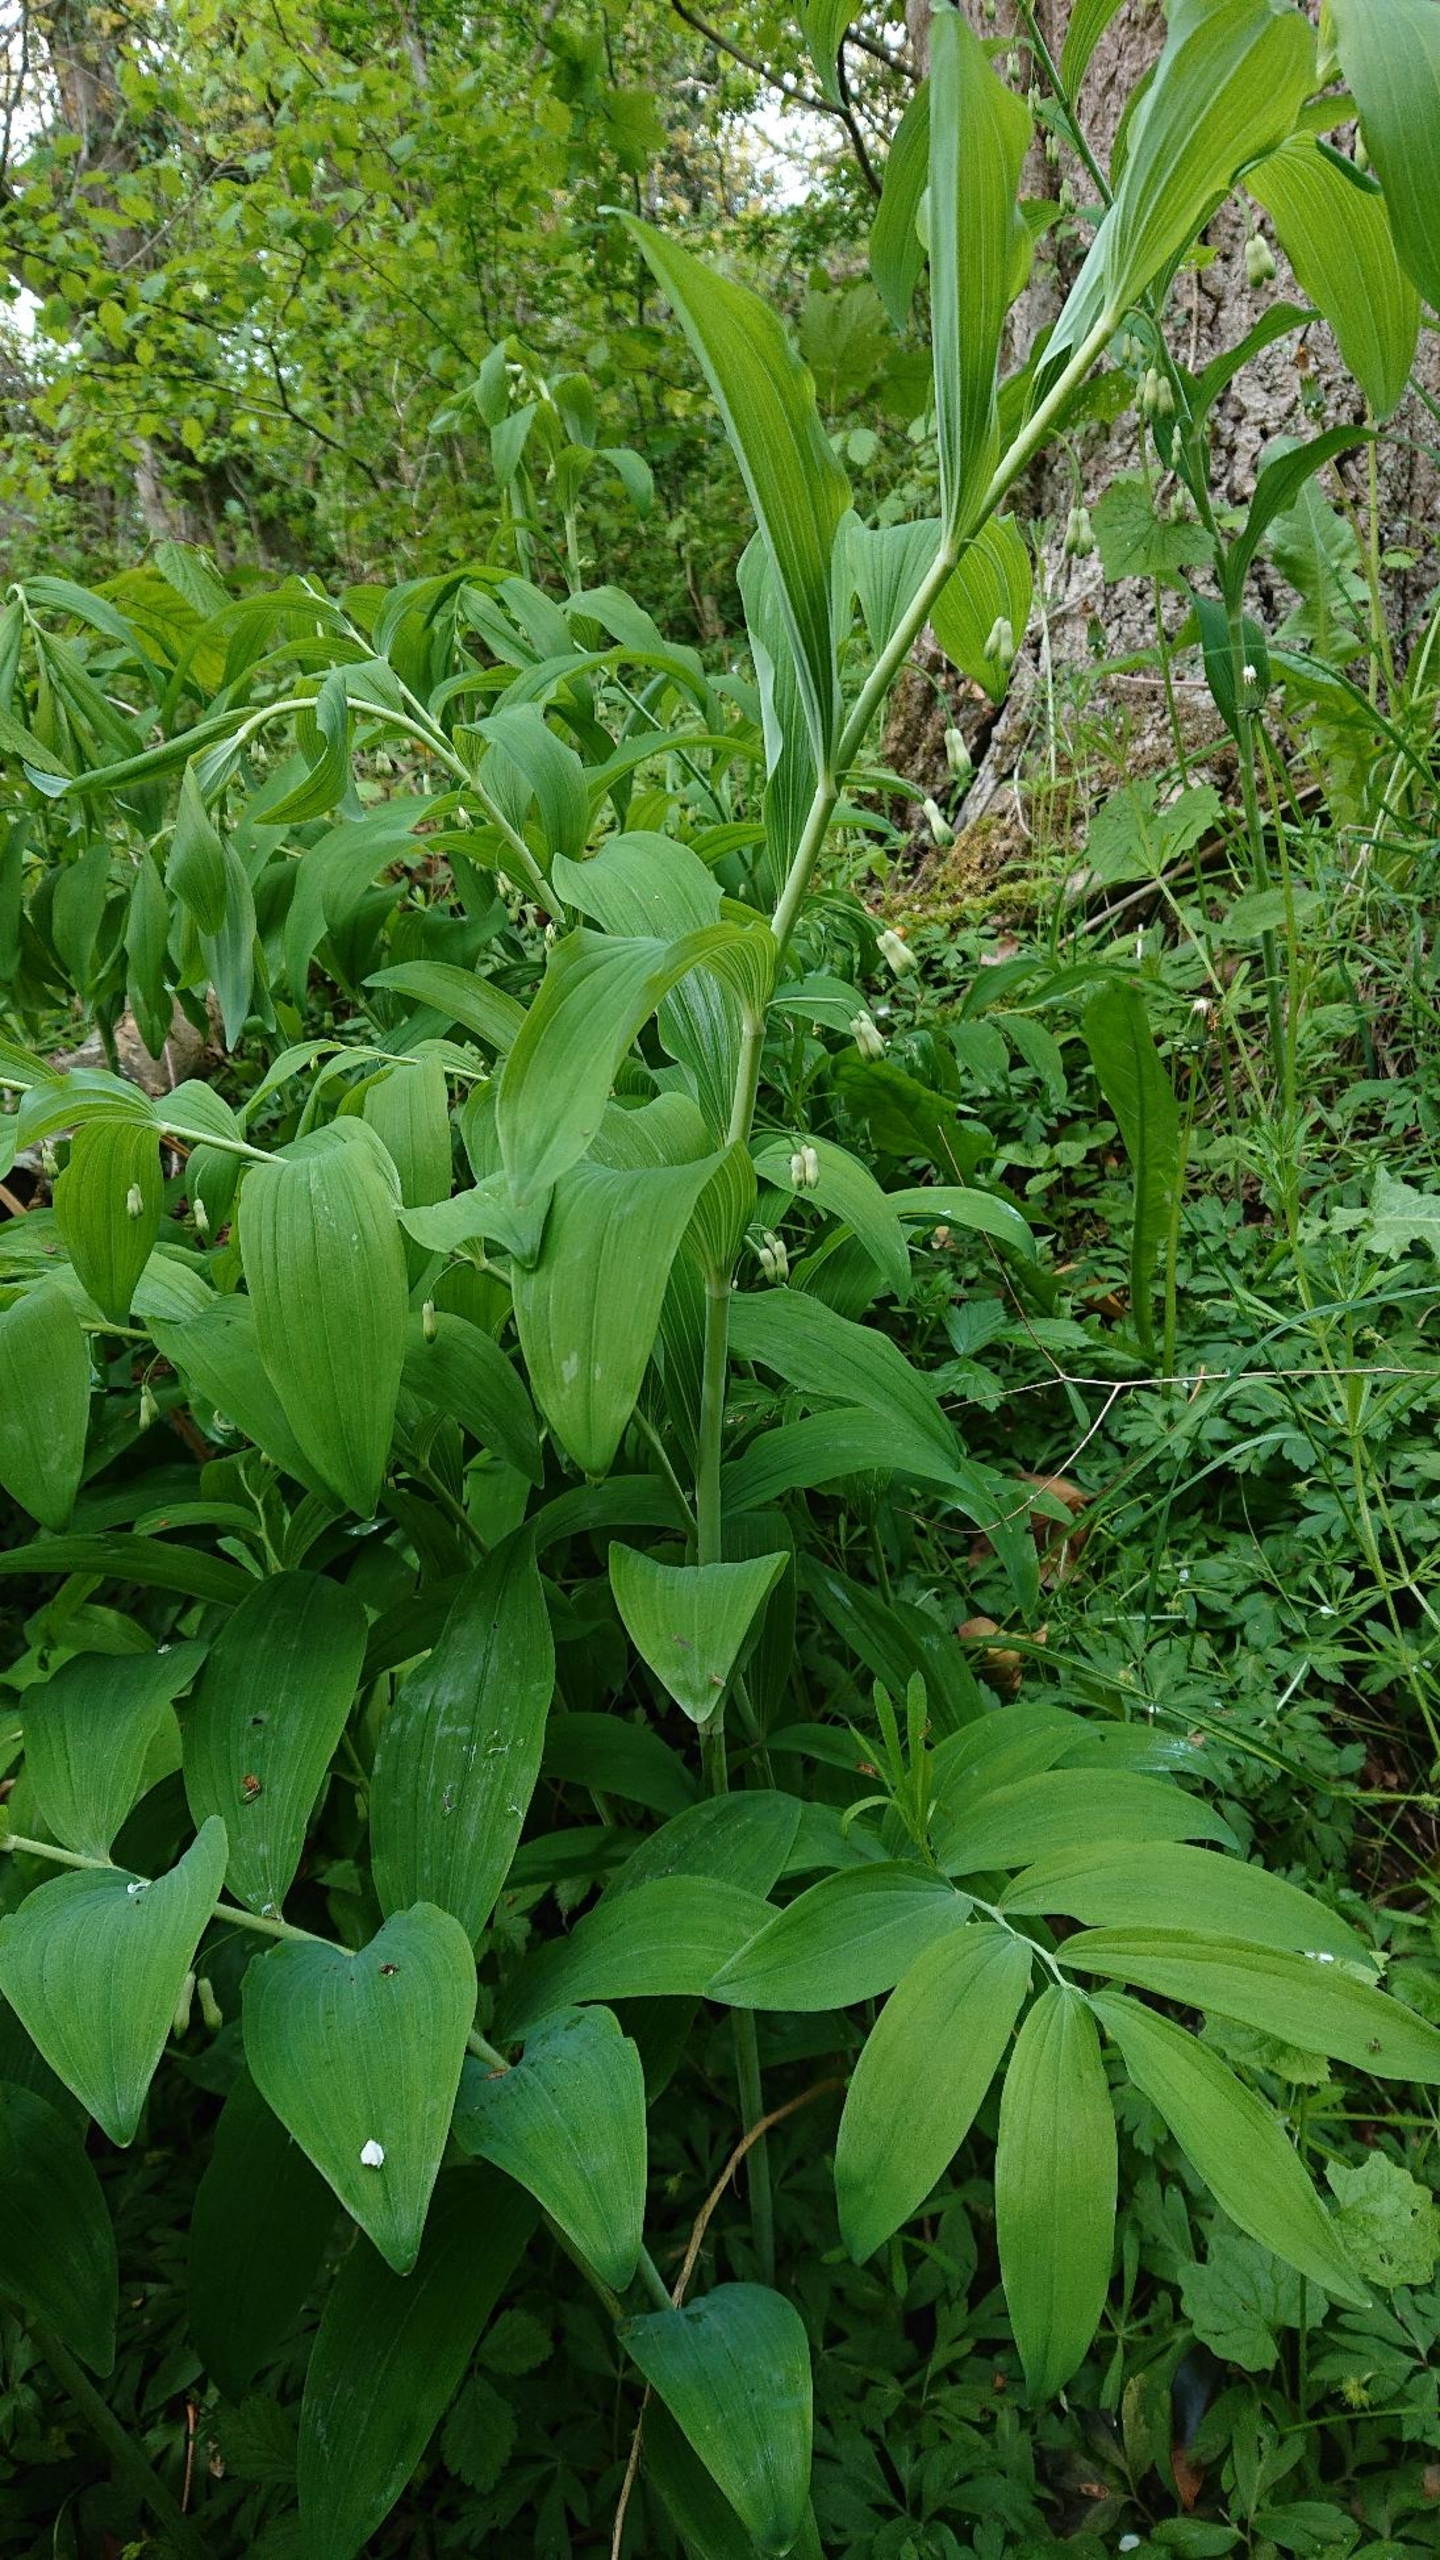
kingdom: Plantae
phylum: Tracheophyta
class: Liliopsida
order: Asparagales
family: Asparagaceae
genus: Polygonatum
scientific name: Polygonatum
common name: Hybrid-konval
